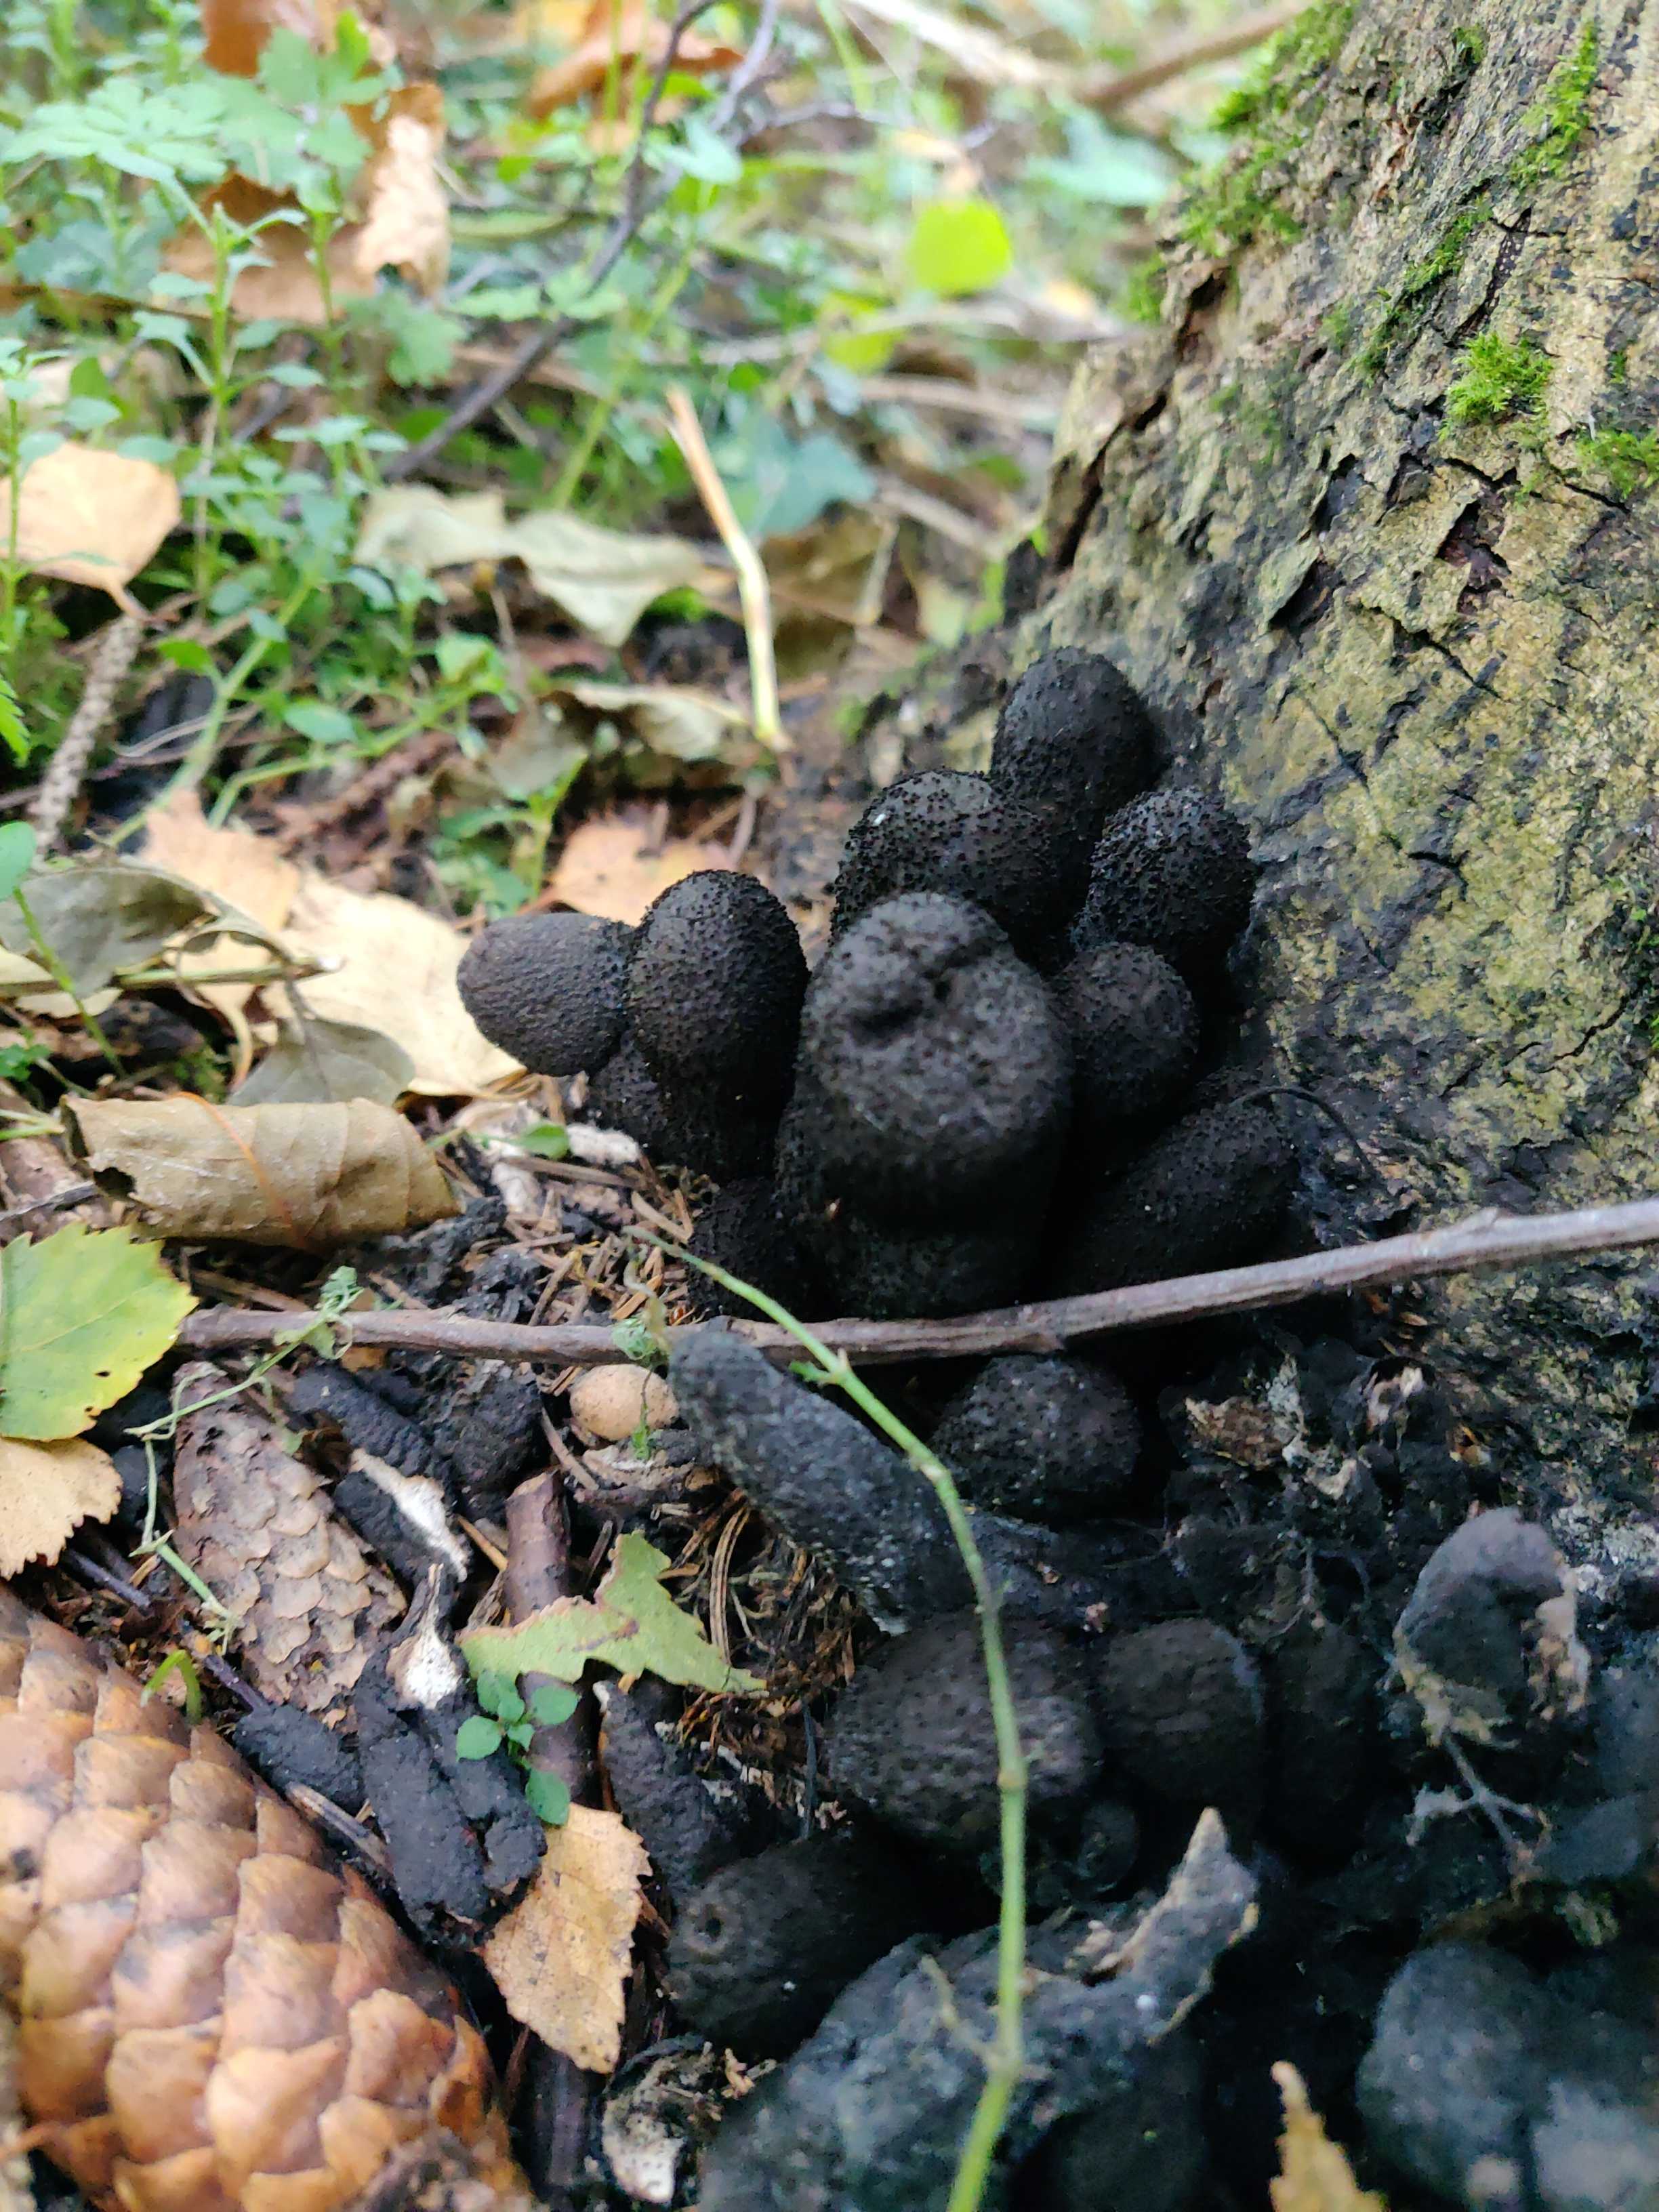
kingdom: Fungi
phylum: Ascomycota
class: Sordariomycetes
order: Xylariales
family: Xylariaceae
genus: Xylaria
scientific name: Xylaria polymorpha
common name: kølle-stødsvamp
